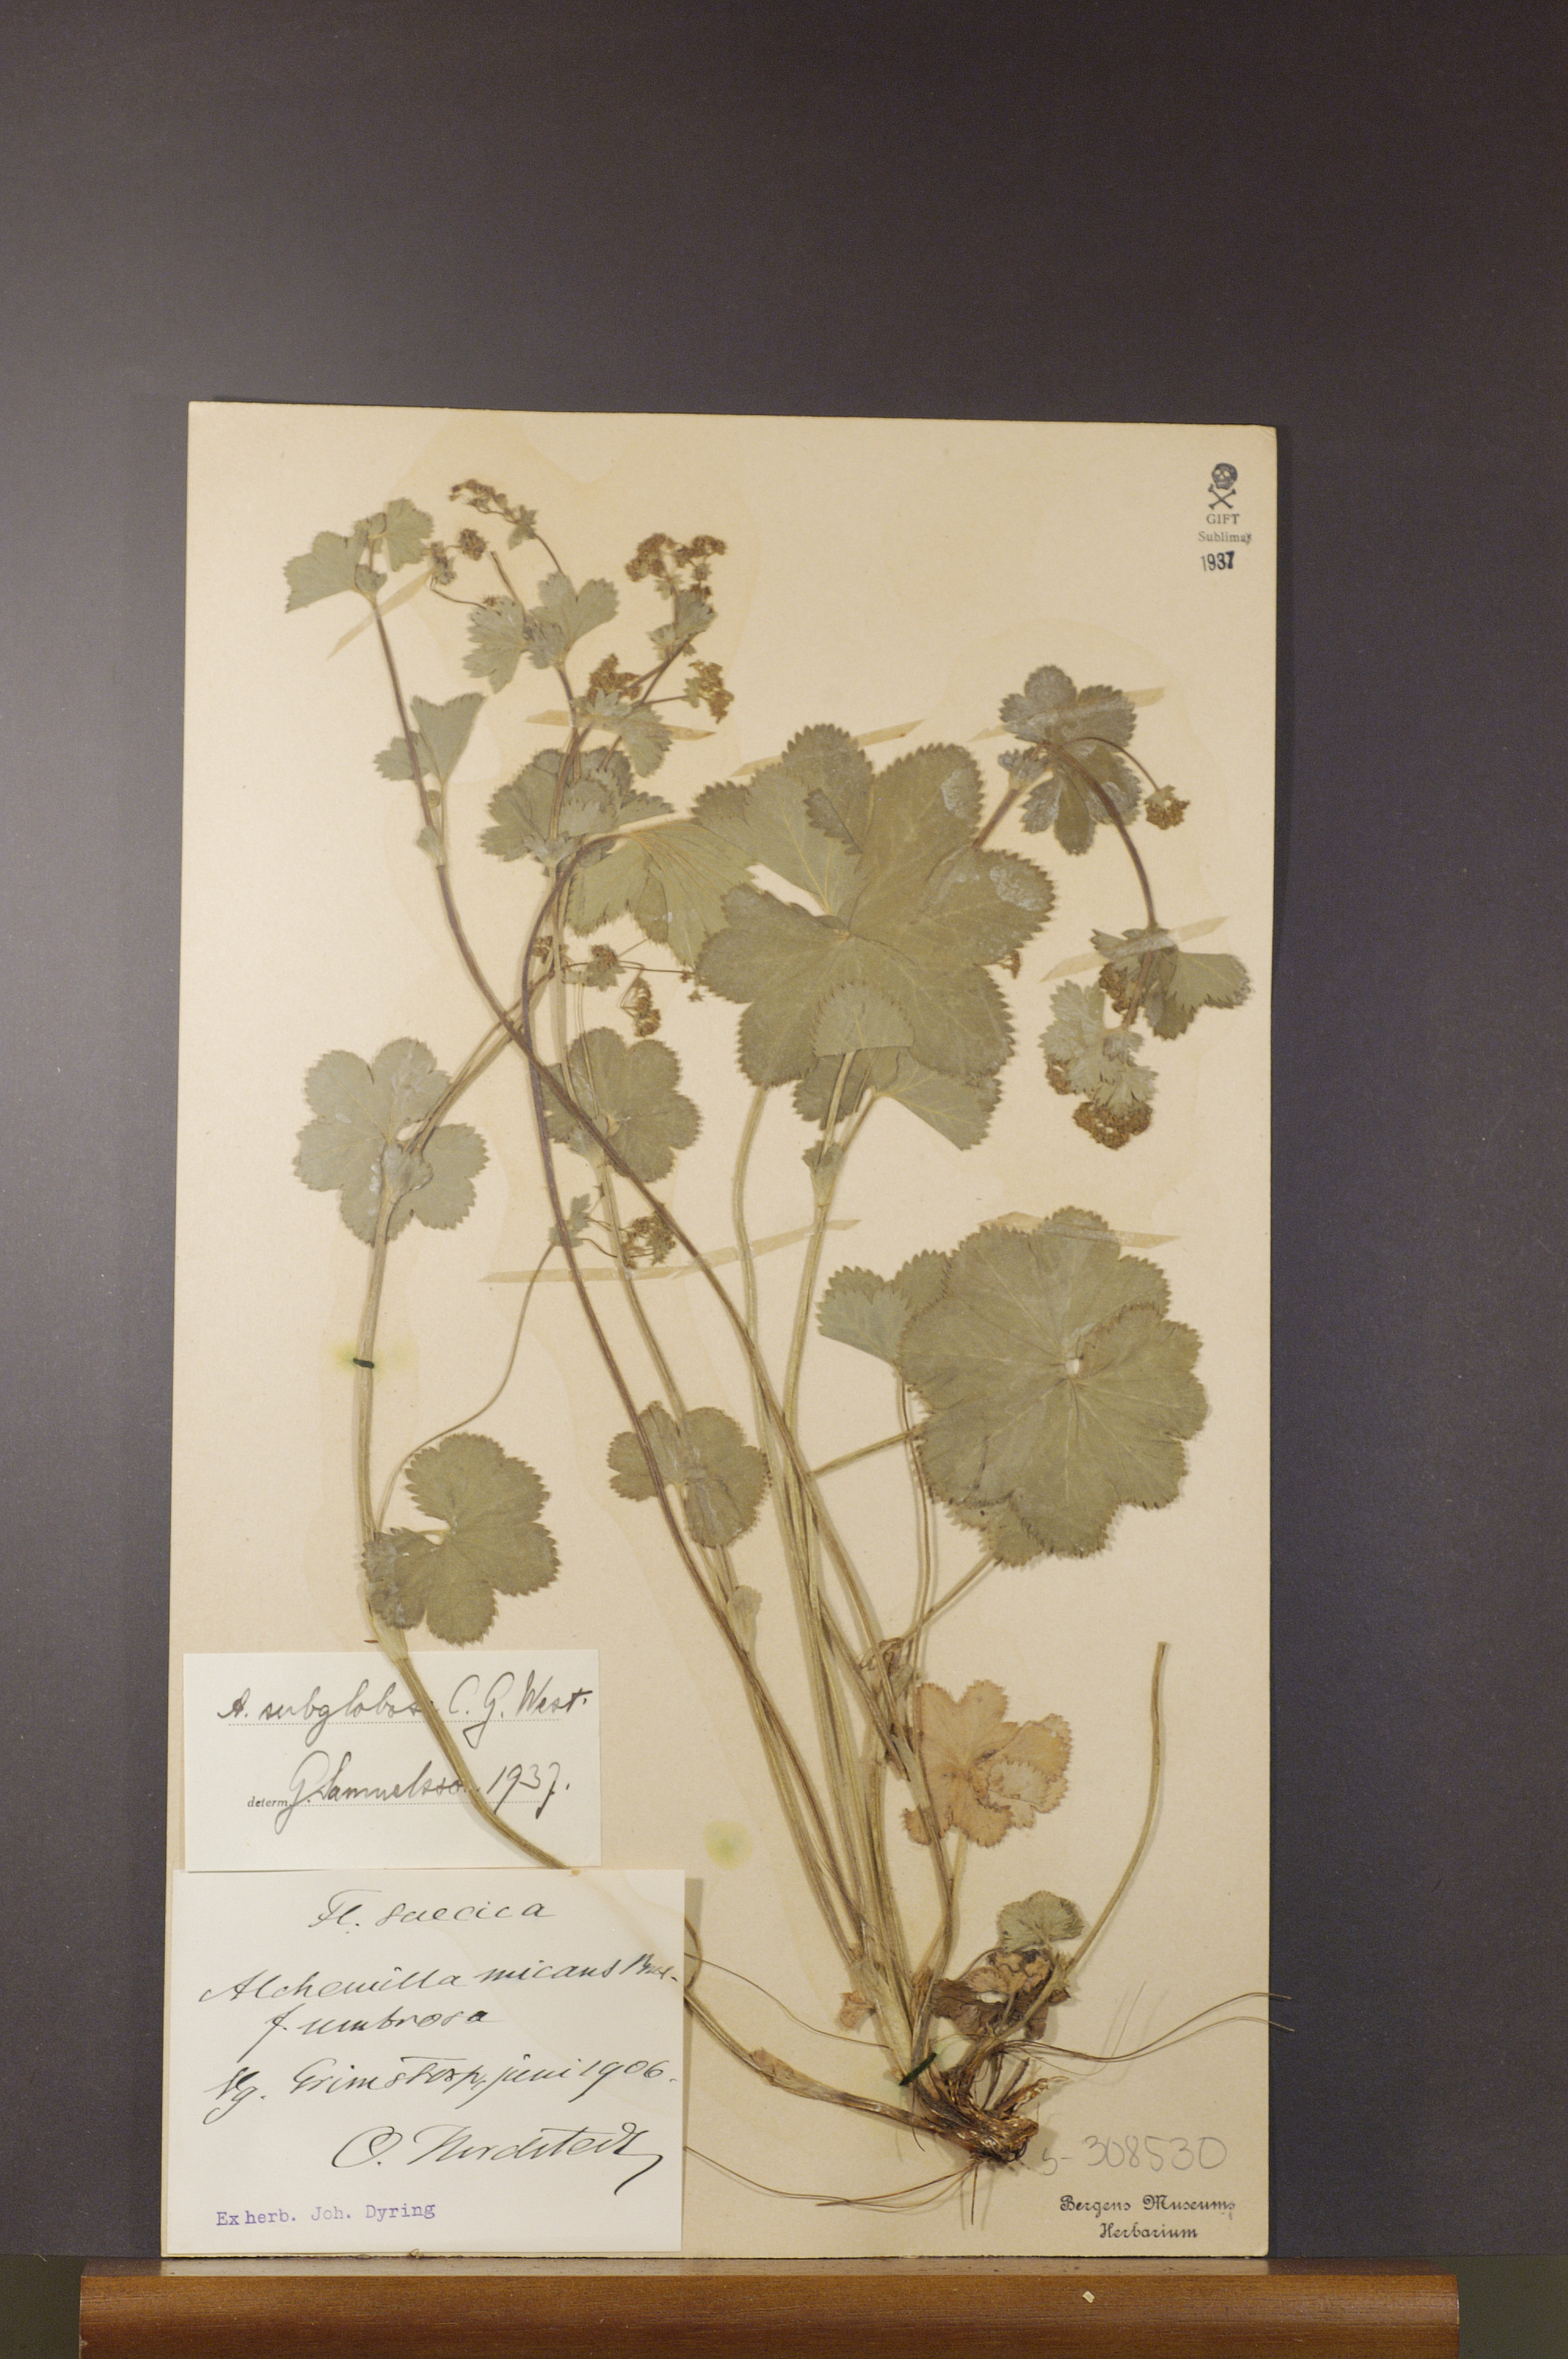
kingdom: Plantae
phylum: Tracheophyta
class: Magnoliopsida
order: Rosales
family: Rosaceae
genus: Alchemilla
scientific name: Alchemilla subglobosa
